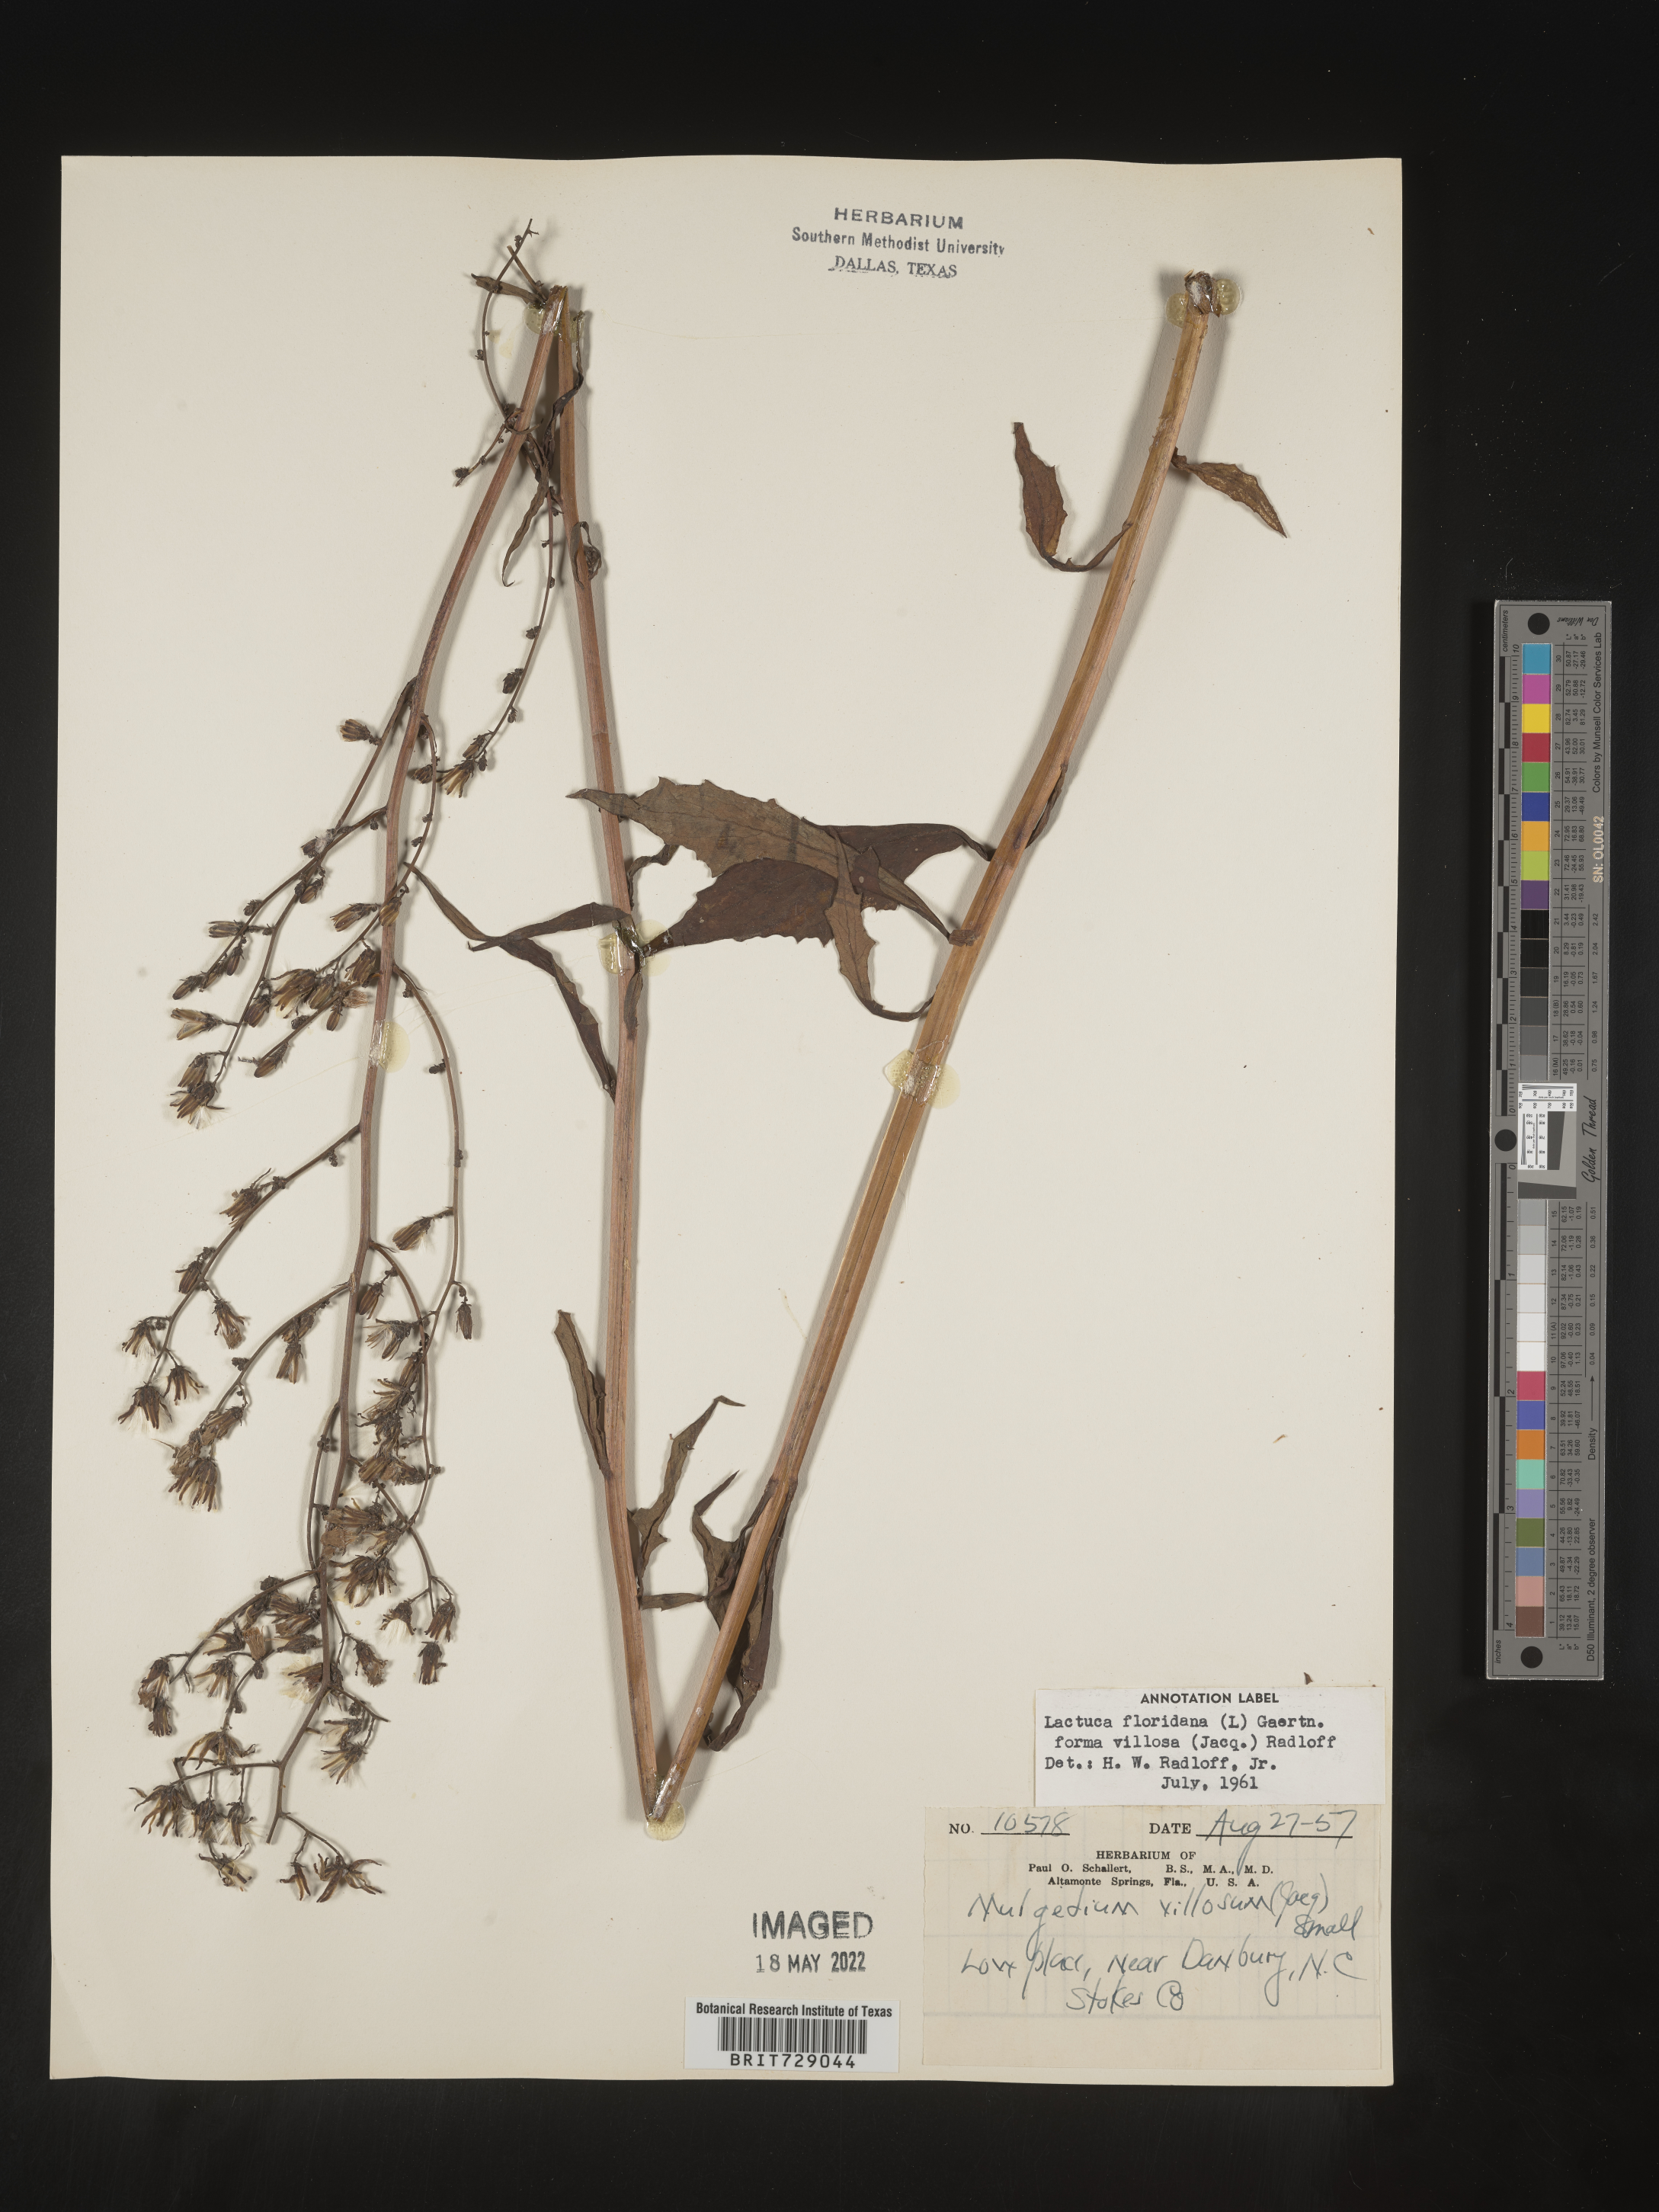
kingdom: Plantae
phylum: Tracheophyta
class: Magnoliopsida
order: Asterales
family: Asteraceae
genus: Lactuca
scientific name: Lactuca floridana
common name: Woodland lettuce
